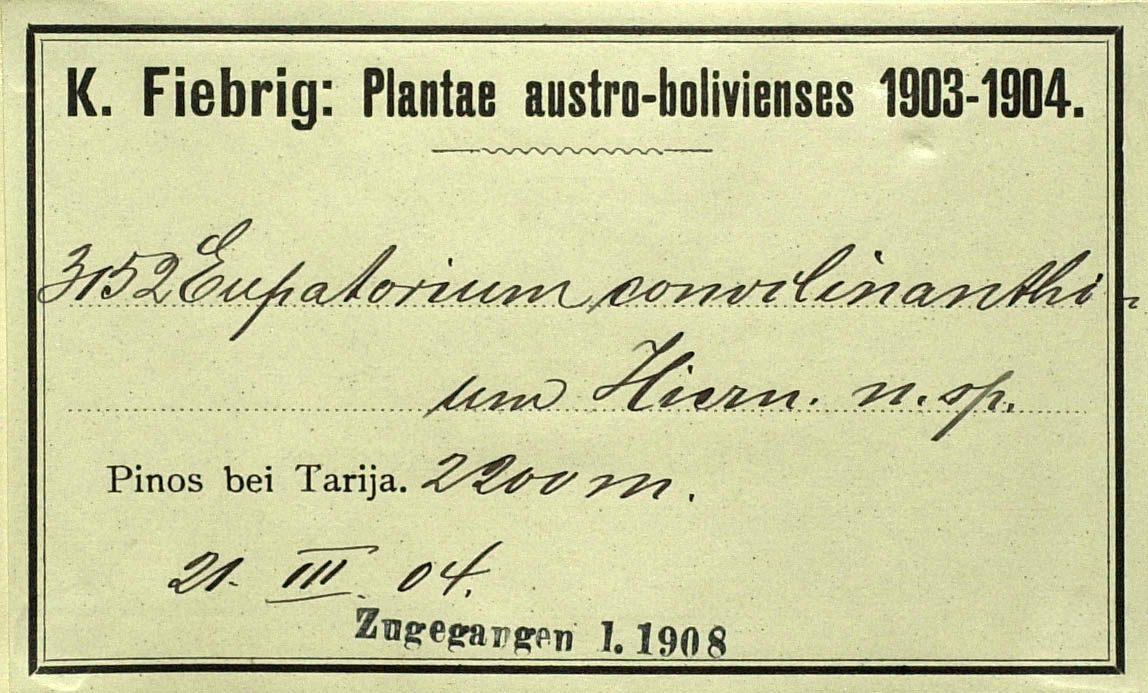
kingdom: Plantae
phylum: Tracheophyta
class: Magnoliopsida
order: Asterales
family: Asteraceae
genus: Praxelis
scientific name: Praxelis conoclinanthia
